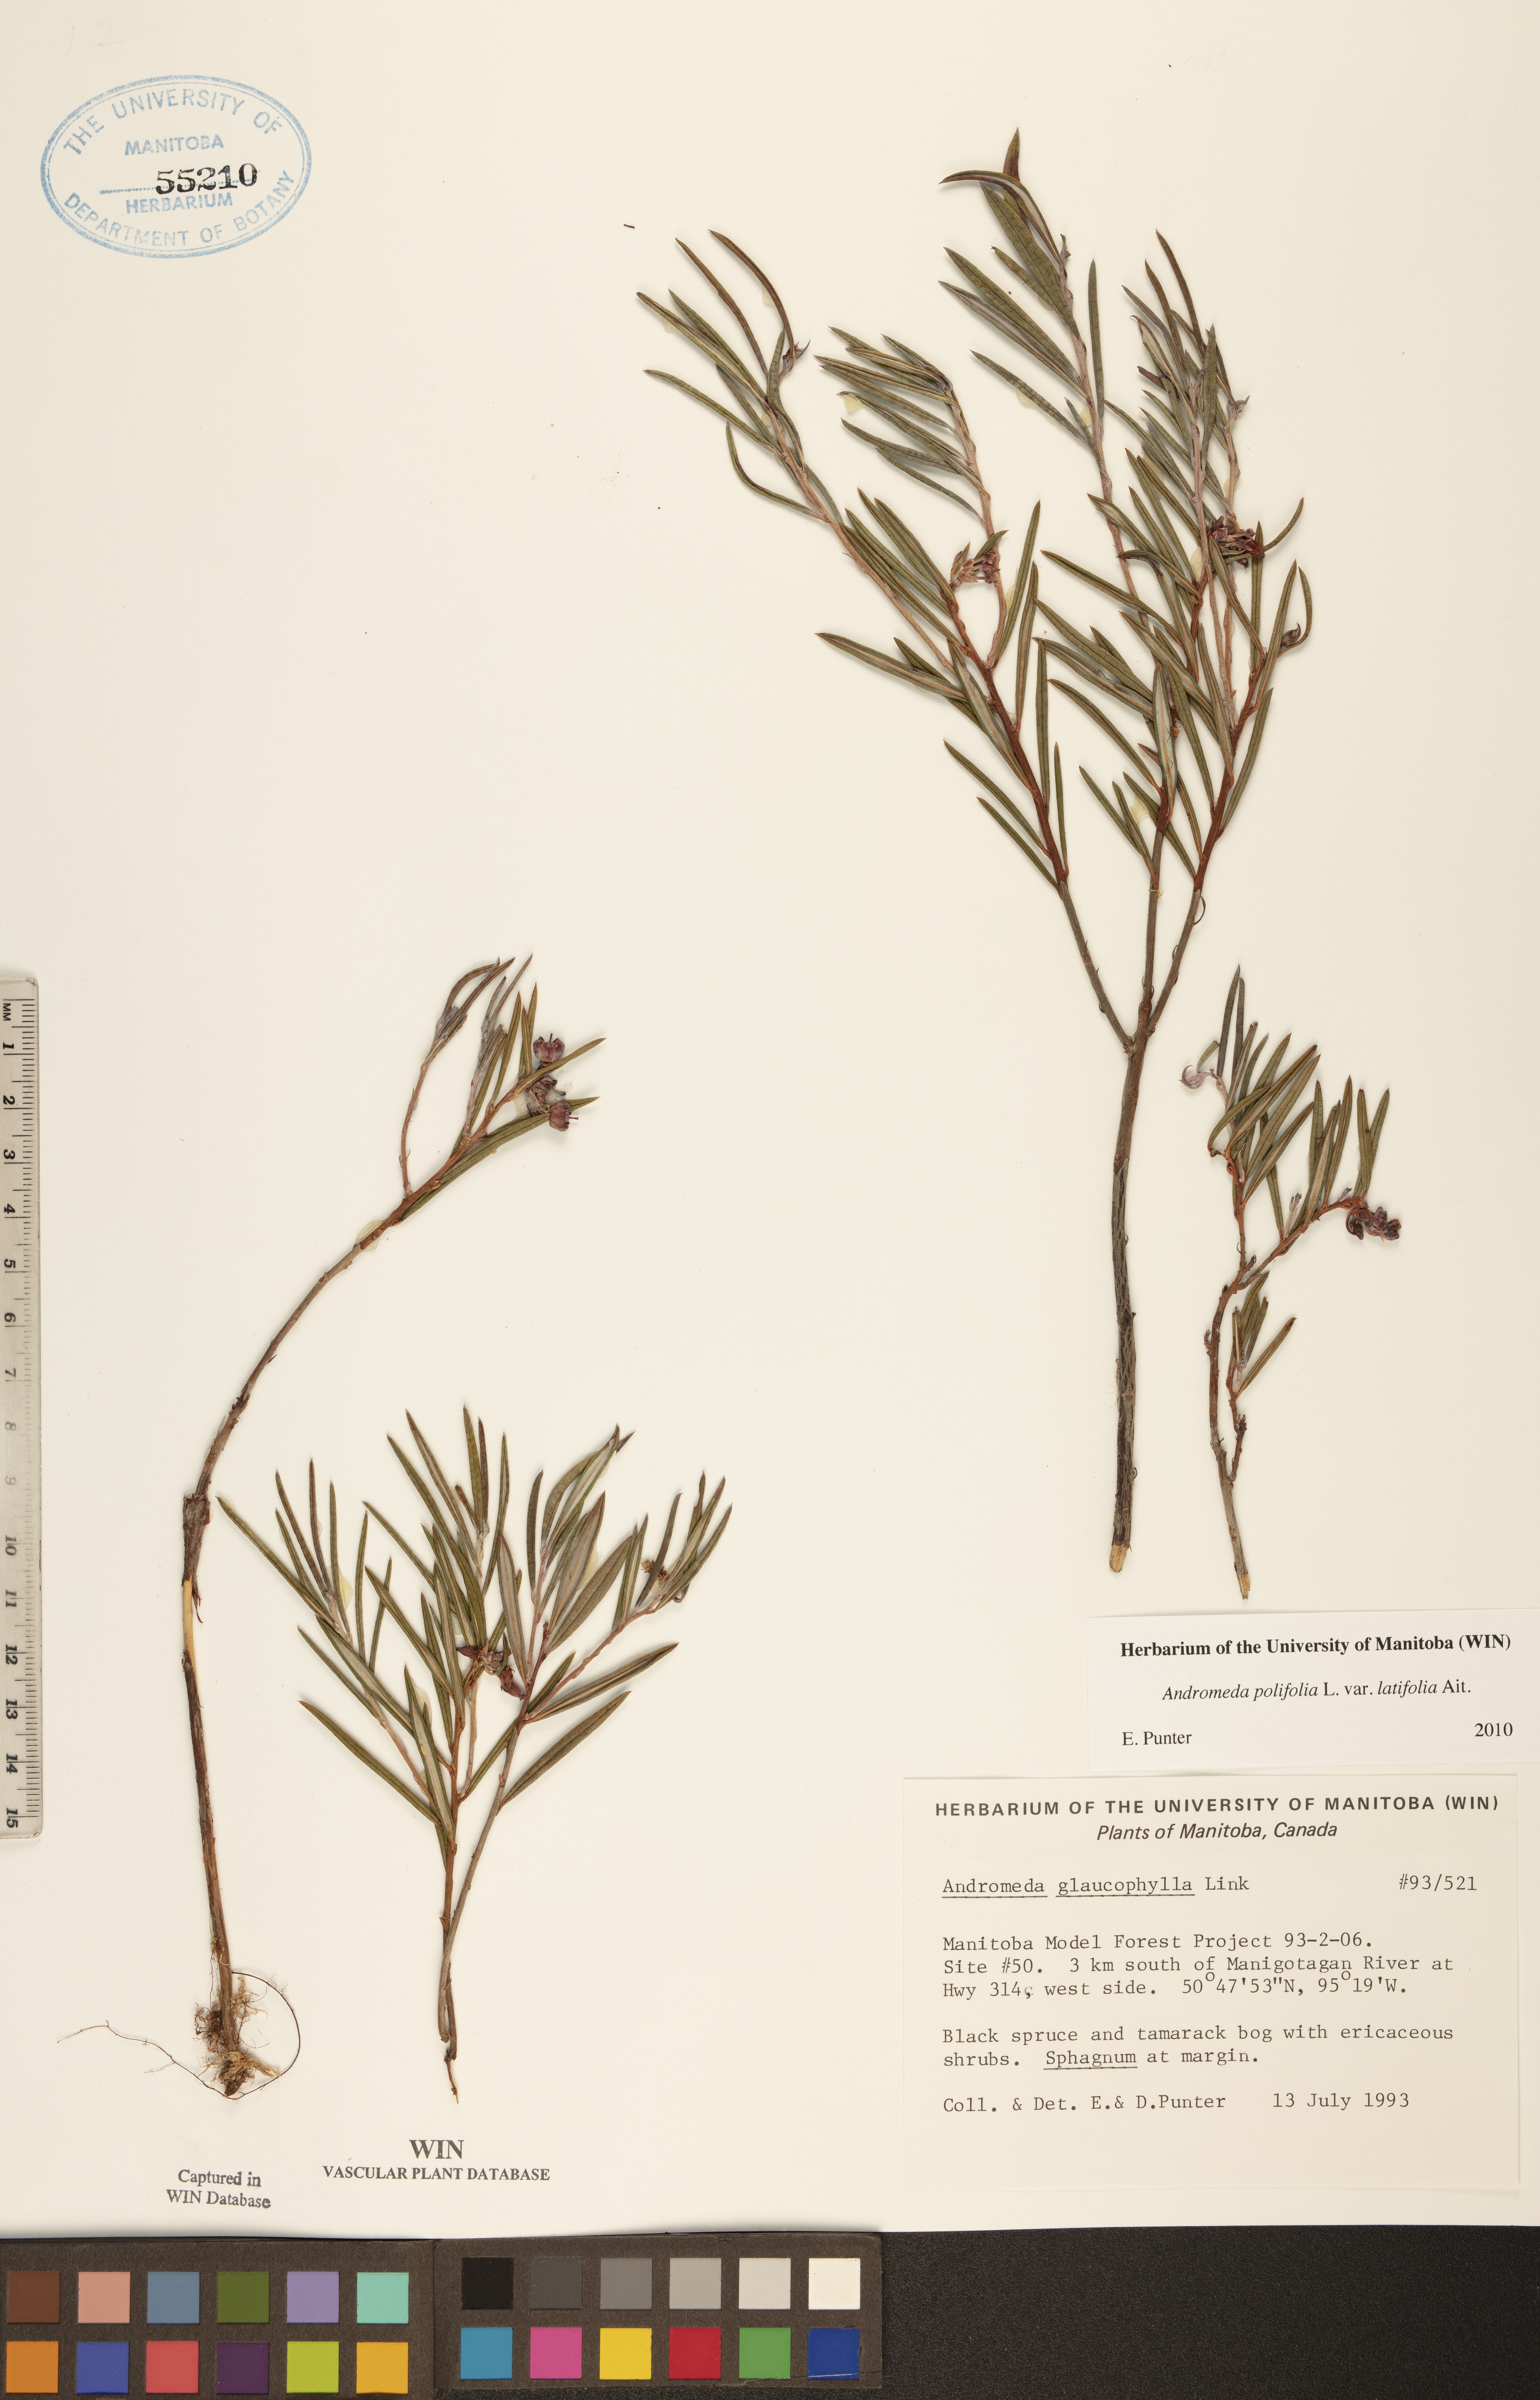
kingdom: Plantae
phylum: Tracheophyta
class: Magnoliopsida
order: Ericales
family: Ericaceae
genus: Andromeda
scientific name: Andromeda polifolia
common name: Bog-rosemary
